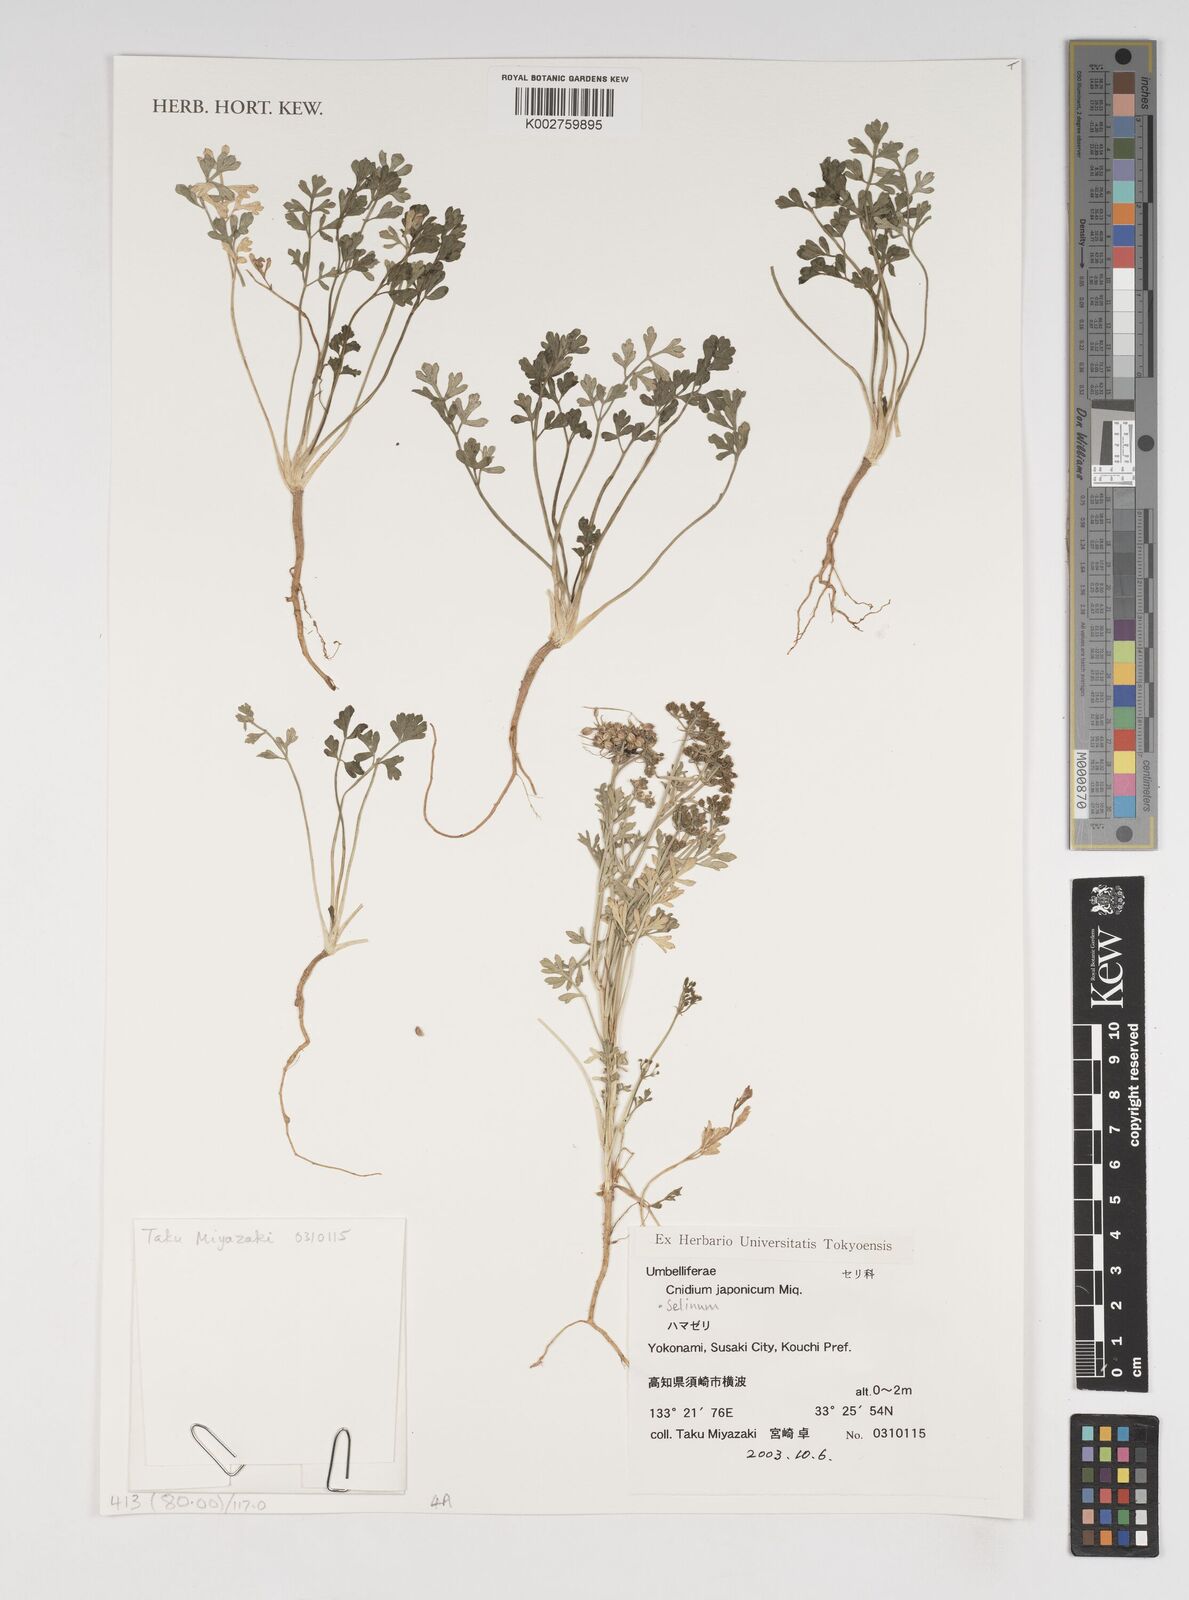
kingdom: Plantae
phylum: Tracheophyta
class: Magnoliopsida
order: Apiales
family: Apiaceae
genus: Cnidium
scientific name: Cnidium japonicum
